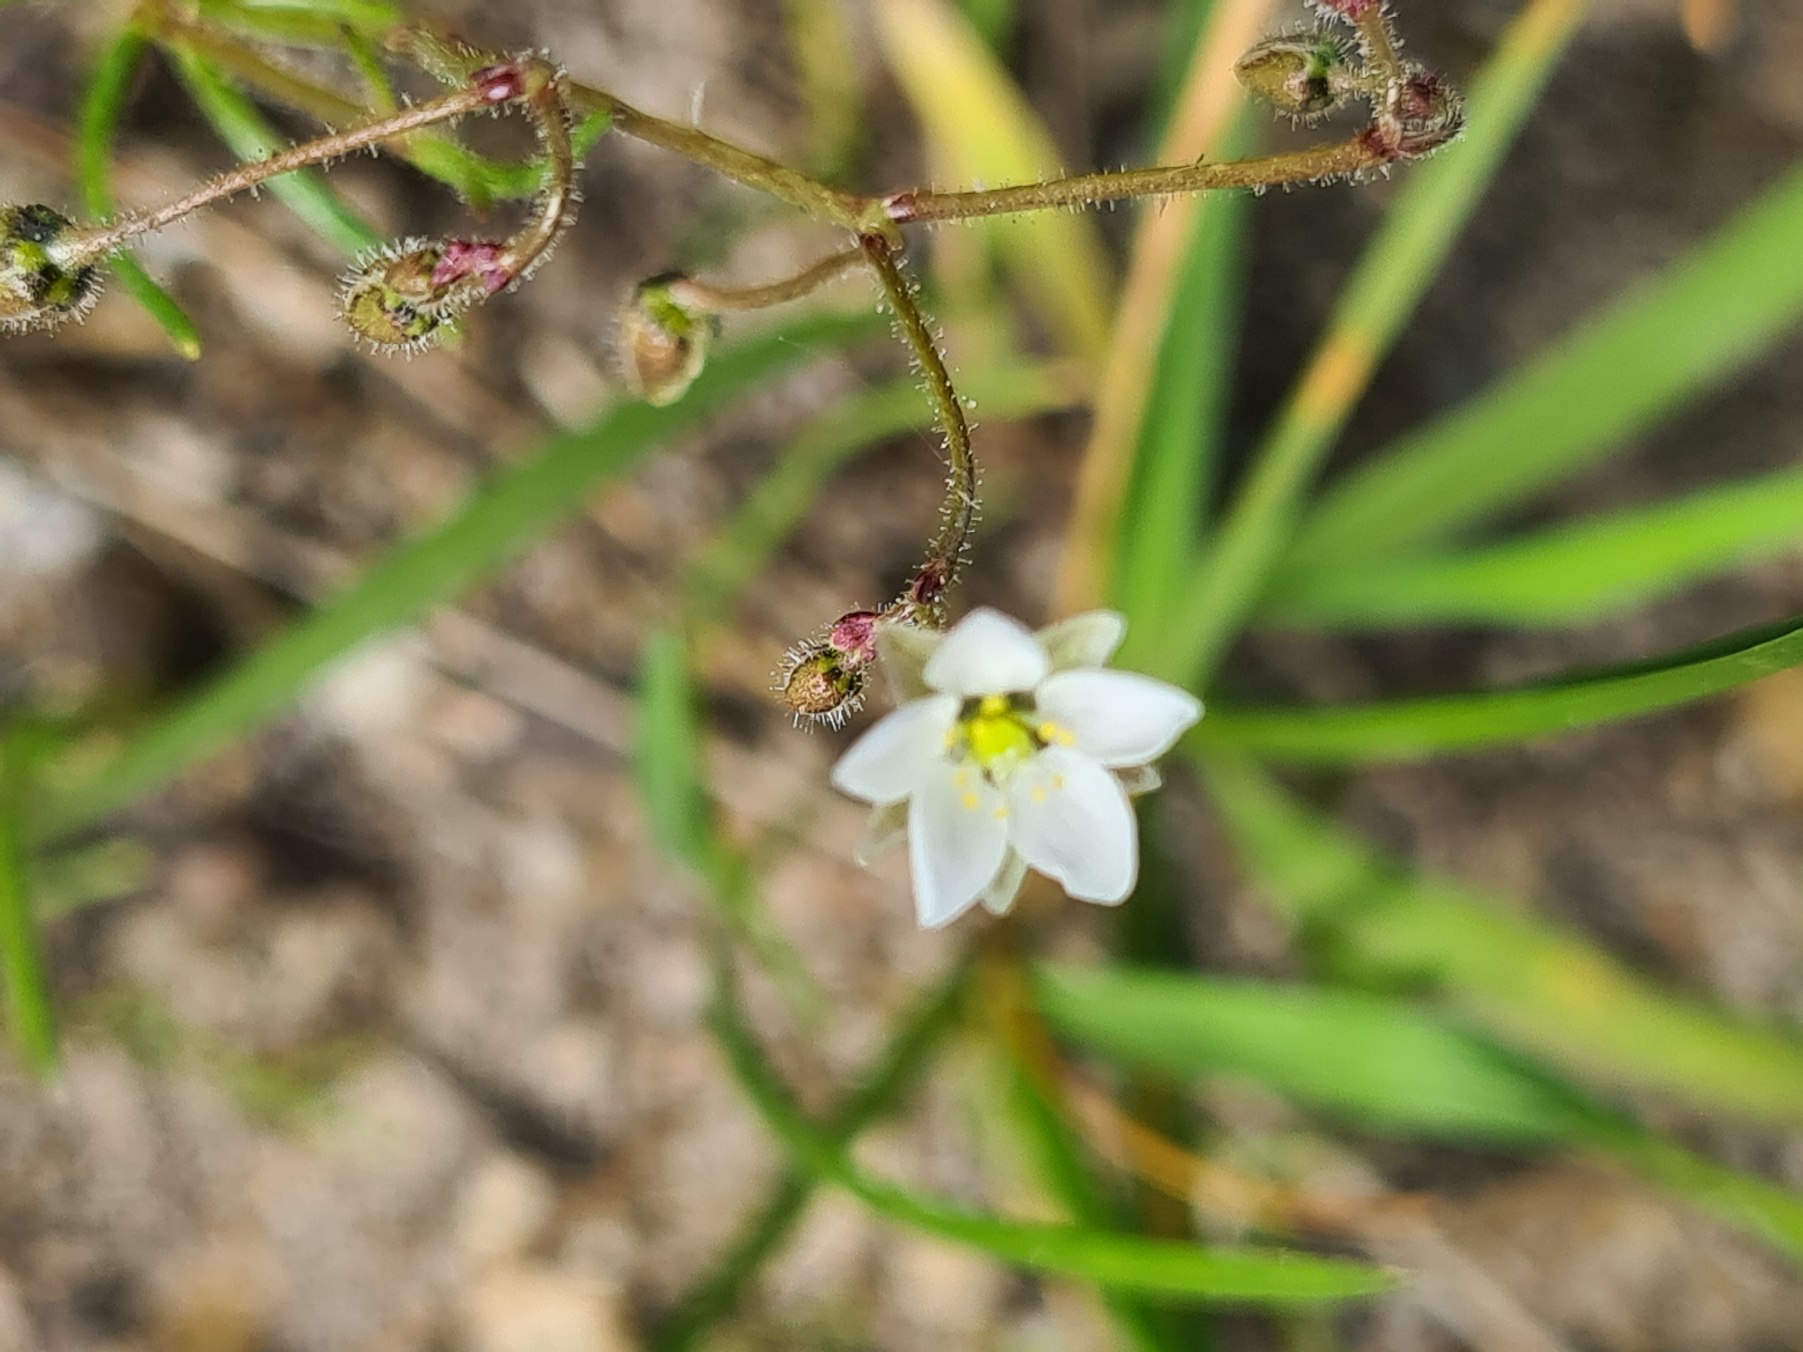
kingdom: Plantae
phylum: Tracheophyta
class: Magnoliopsida
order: Caryophyllales
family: Caryophyllaceae
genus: Spergula
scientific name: Spergula arvensis
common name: Almindelig spergel
